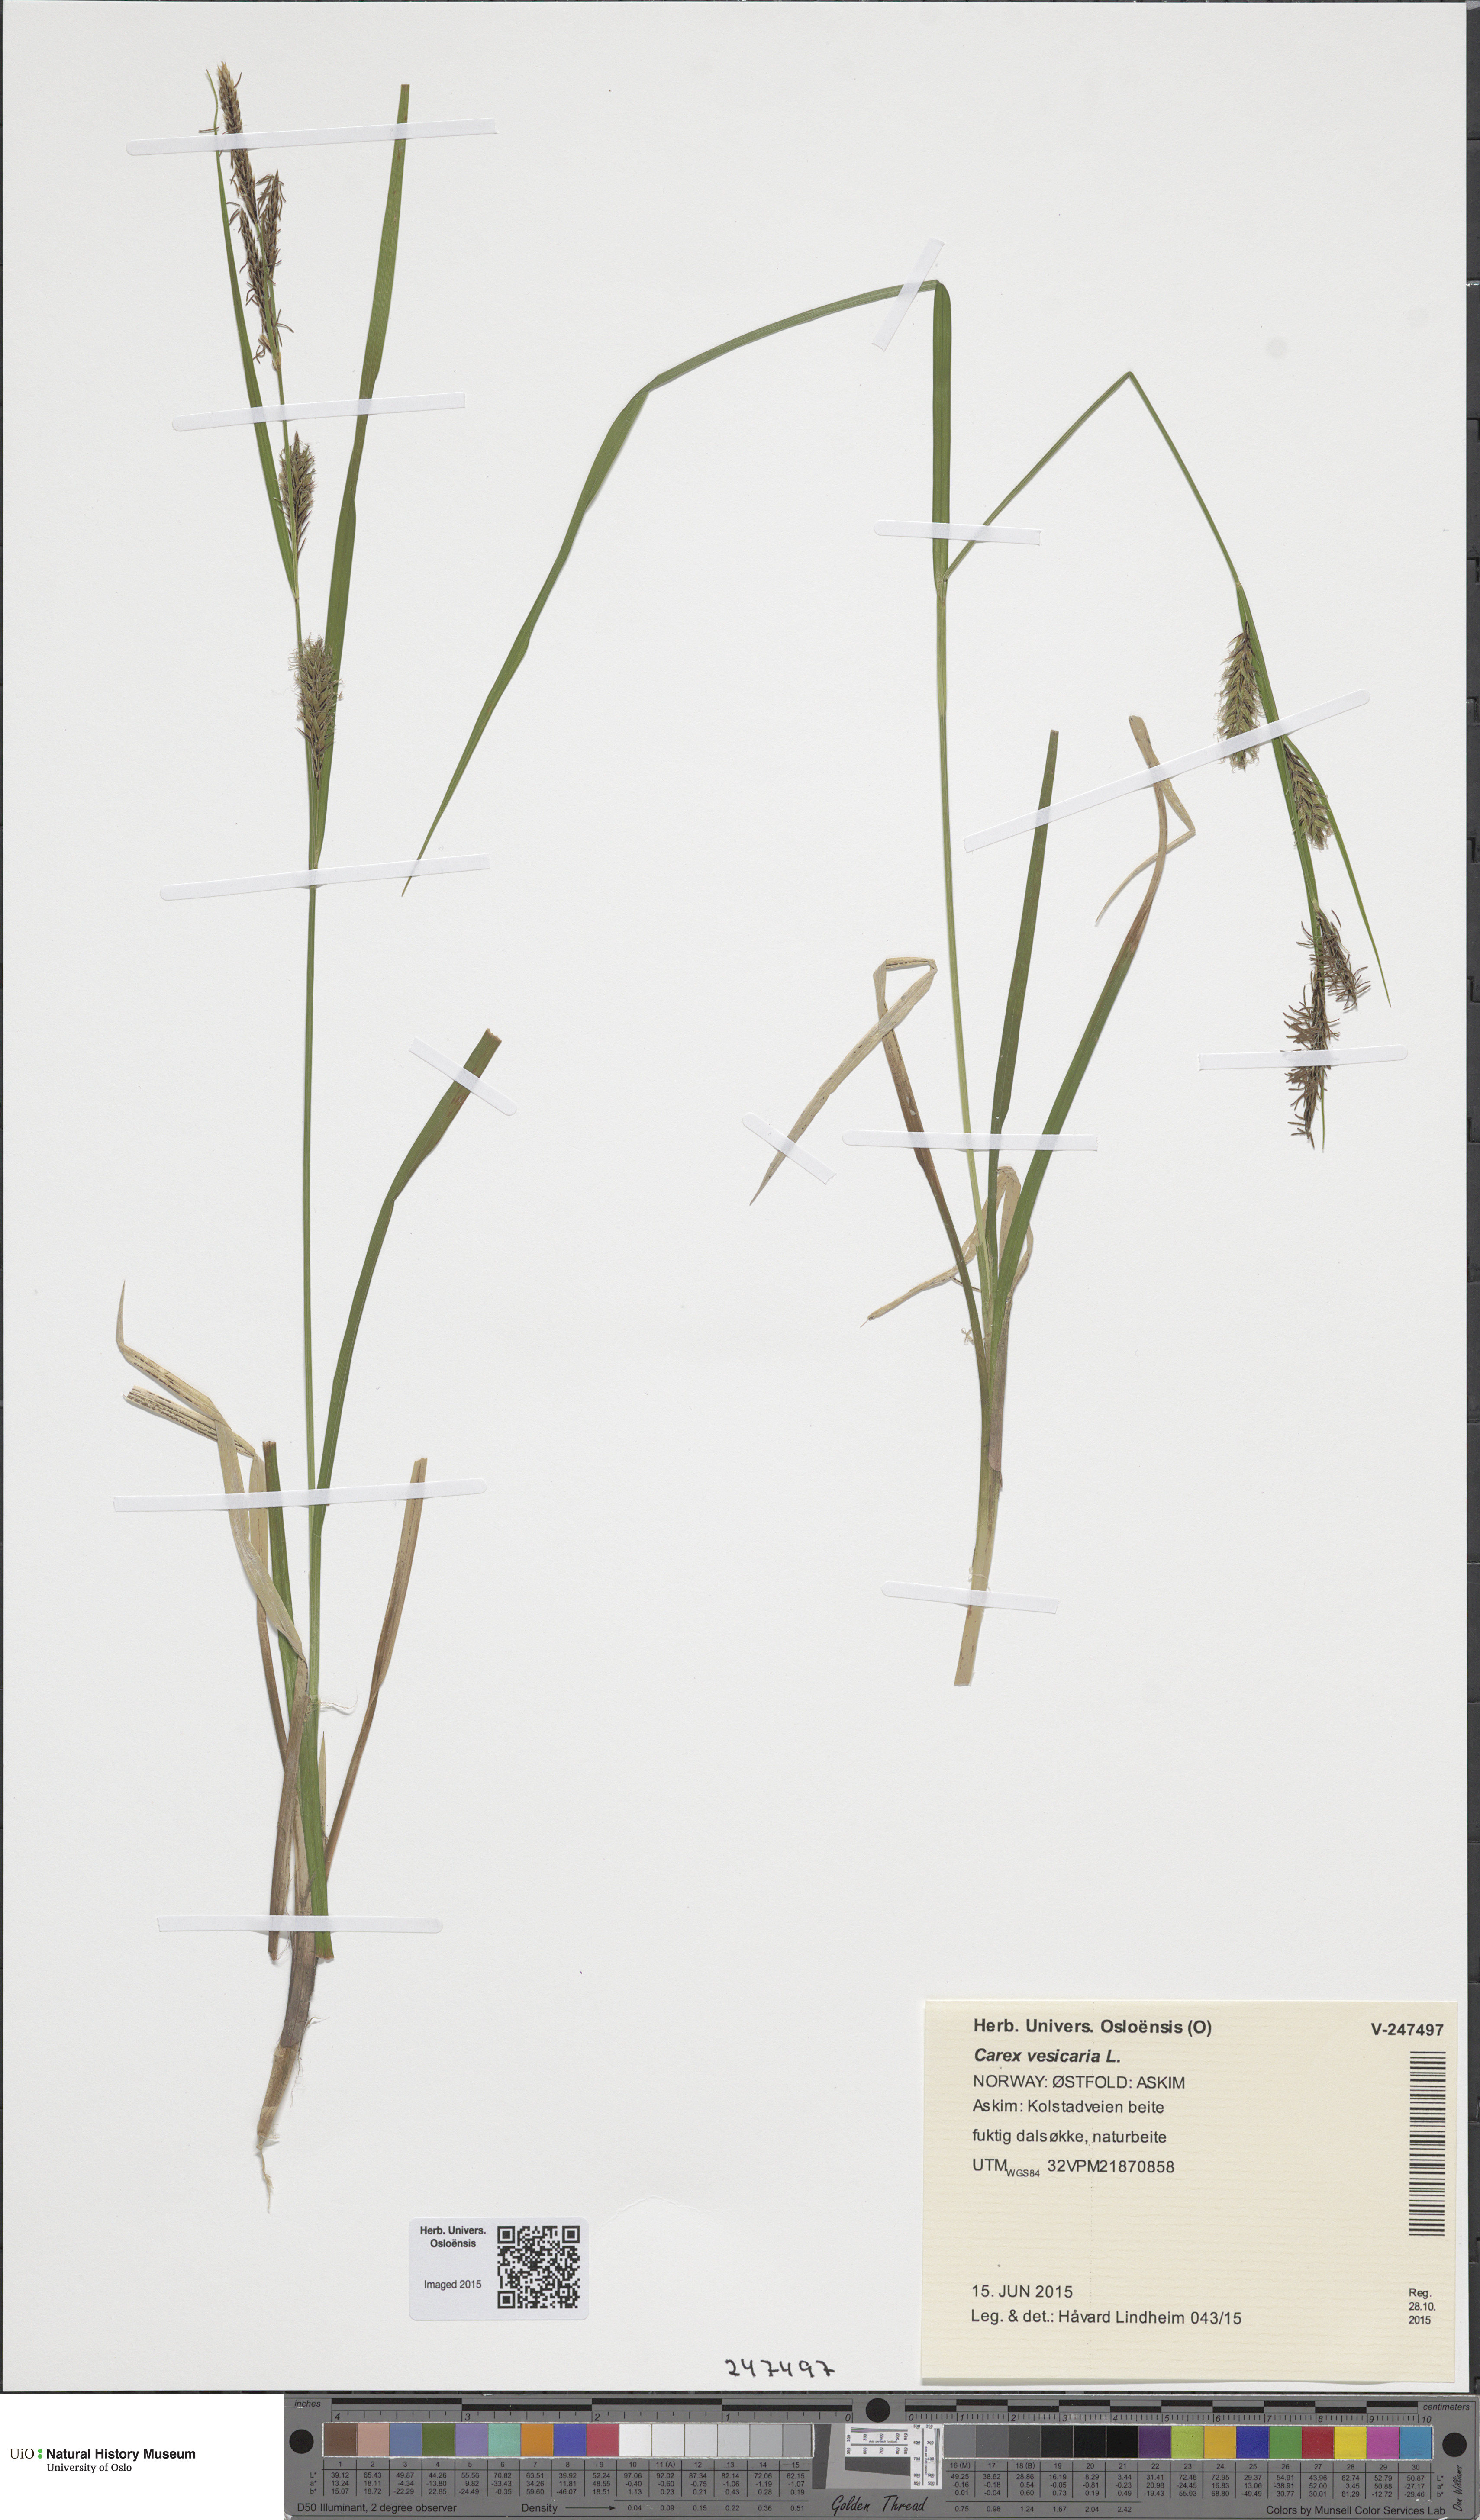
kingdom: Plantae
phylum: Tracheophyta
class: Liliopsida
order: Poales
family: Cyperaceae
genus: Carex
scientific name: Carex vesicaria
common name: Bladder-sedge
